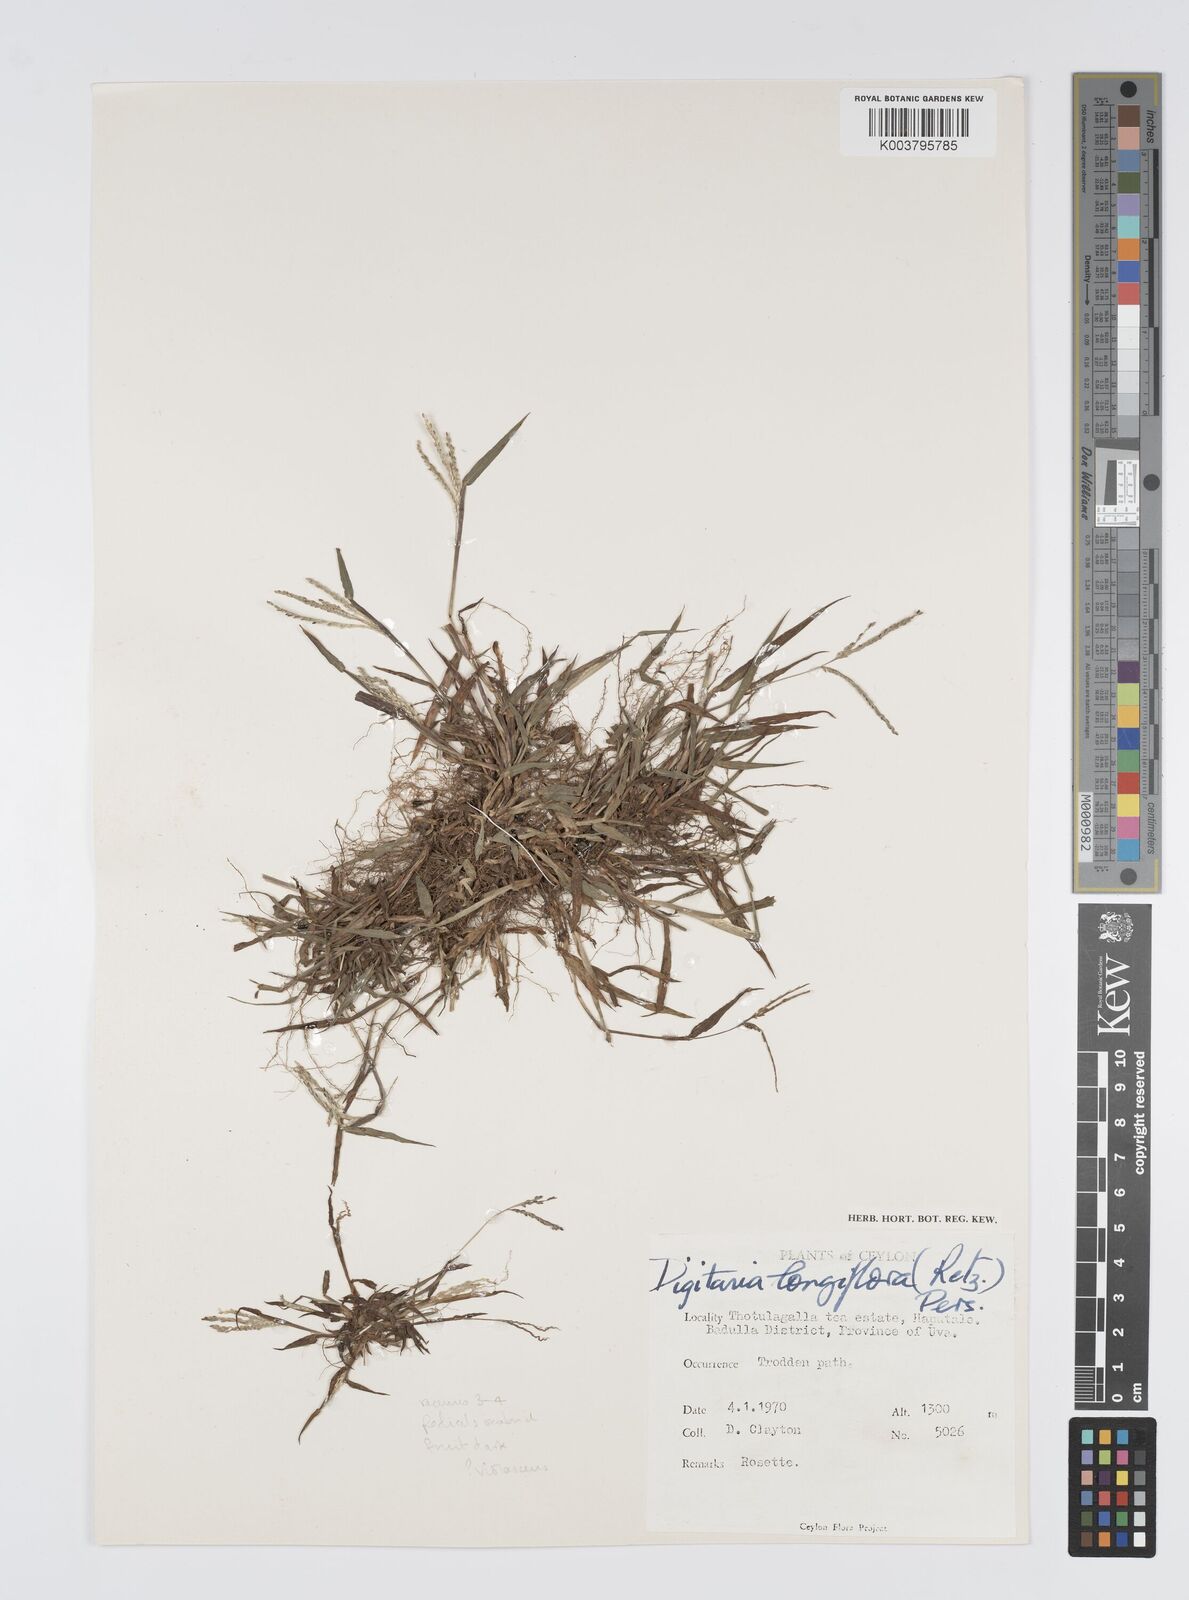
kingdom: Plantae
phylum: Tracheophyta
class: Liliopsida
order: Poales
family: Poaceae
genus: Digitaria
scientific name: Digitaria violascens
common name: Violet crabgrass
